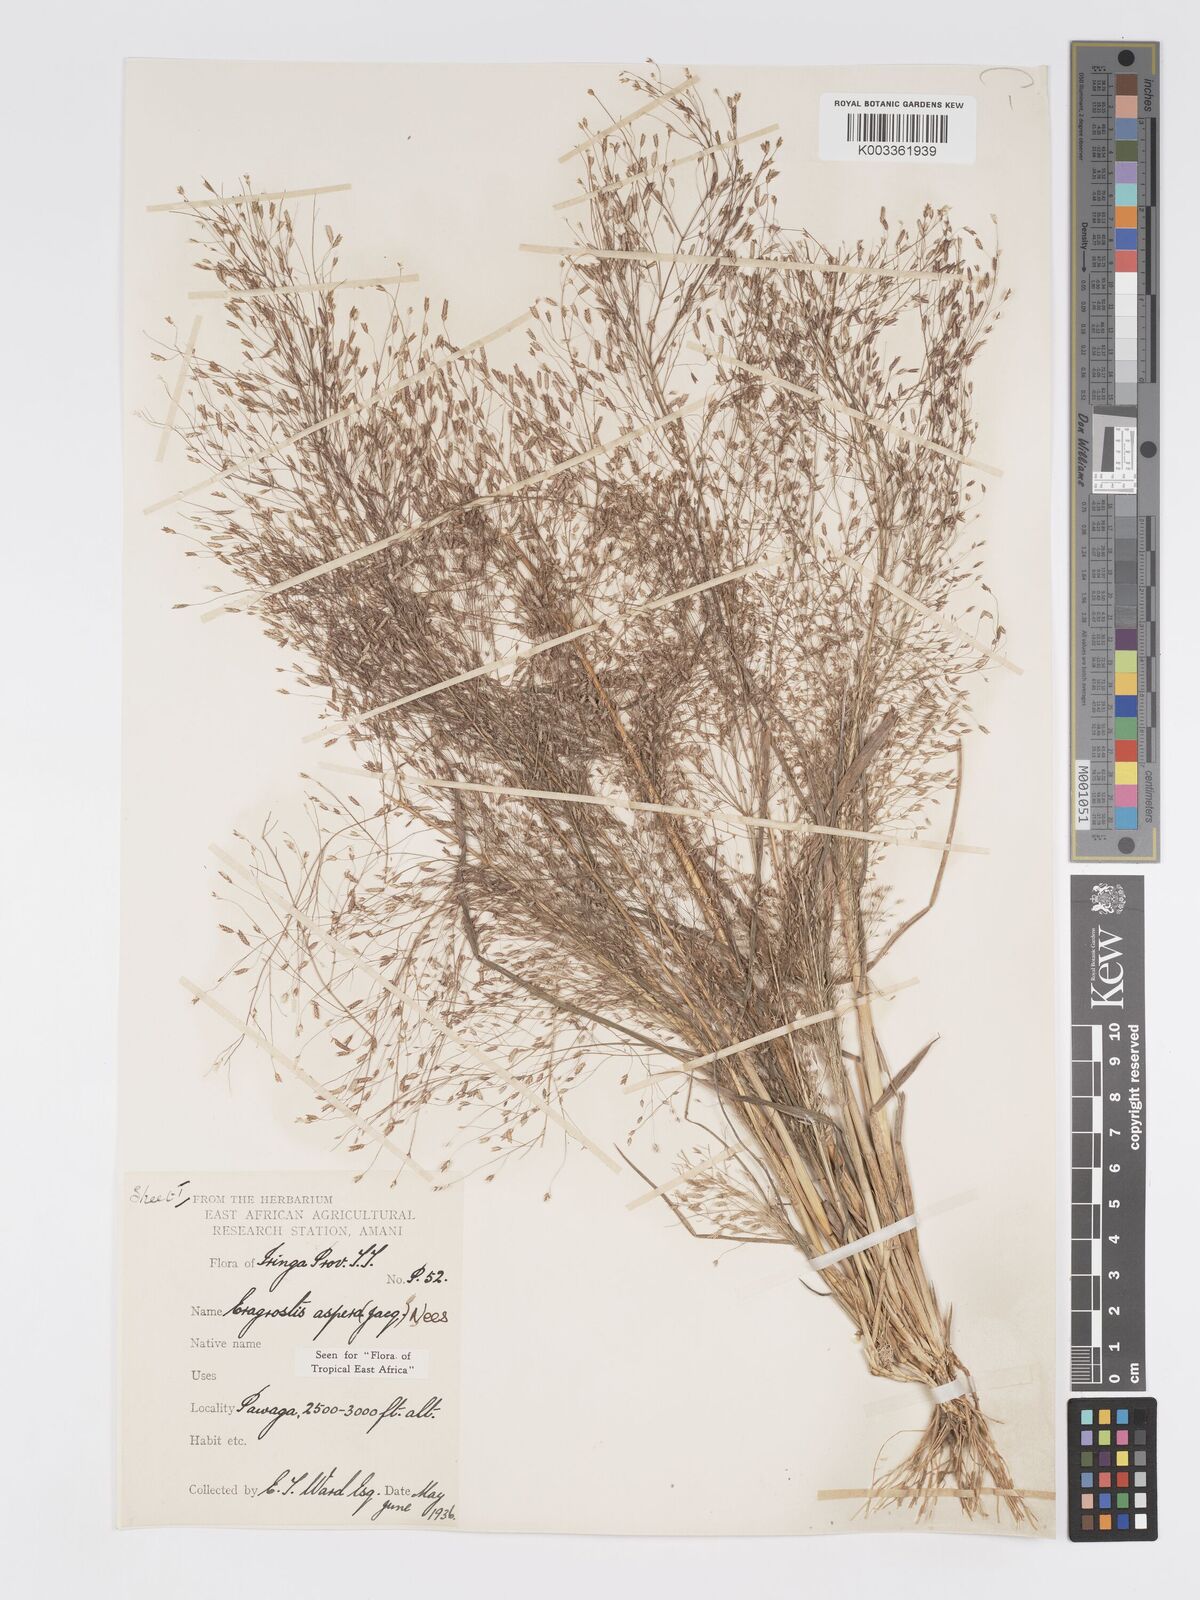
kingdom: Plantae
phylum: Tracheophyta
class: Liliopsida
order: Poales
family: Poaceae
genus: Eragrostis
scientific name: Eragrostis aspera
